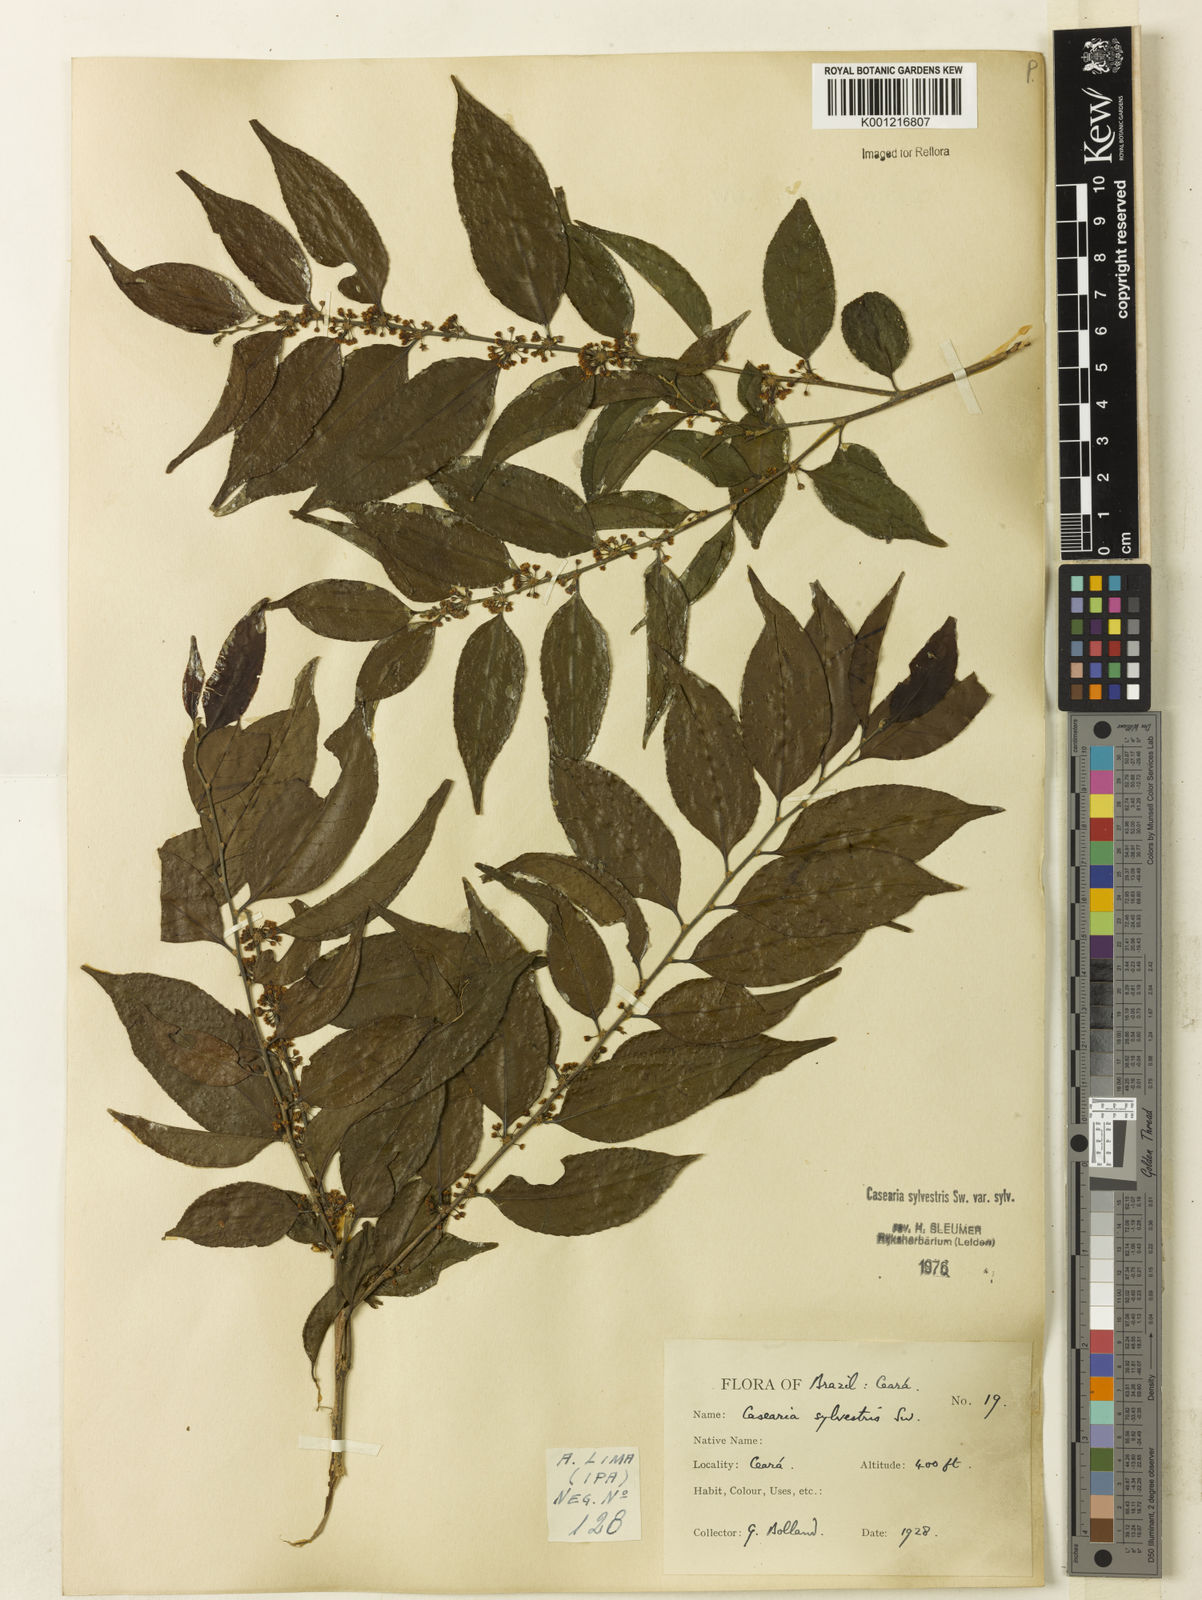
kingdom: Plantae
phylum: Tracheophyta
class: Magnoliopsida
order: Malpighiales
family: Salicaceae
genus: Casearia
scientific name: Casearia sylvestris
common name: Wild sage
